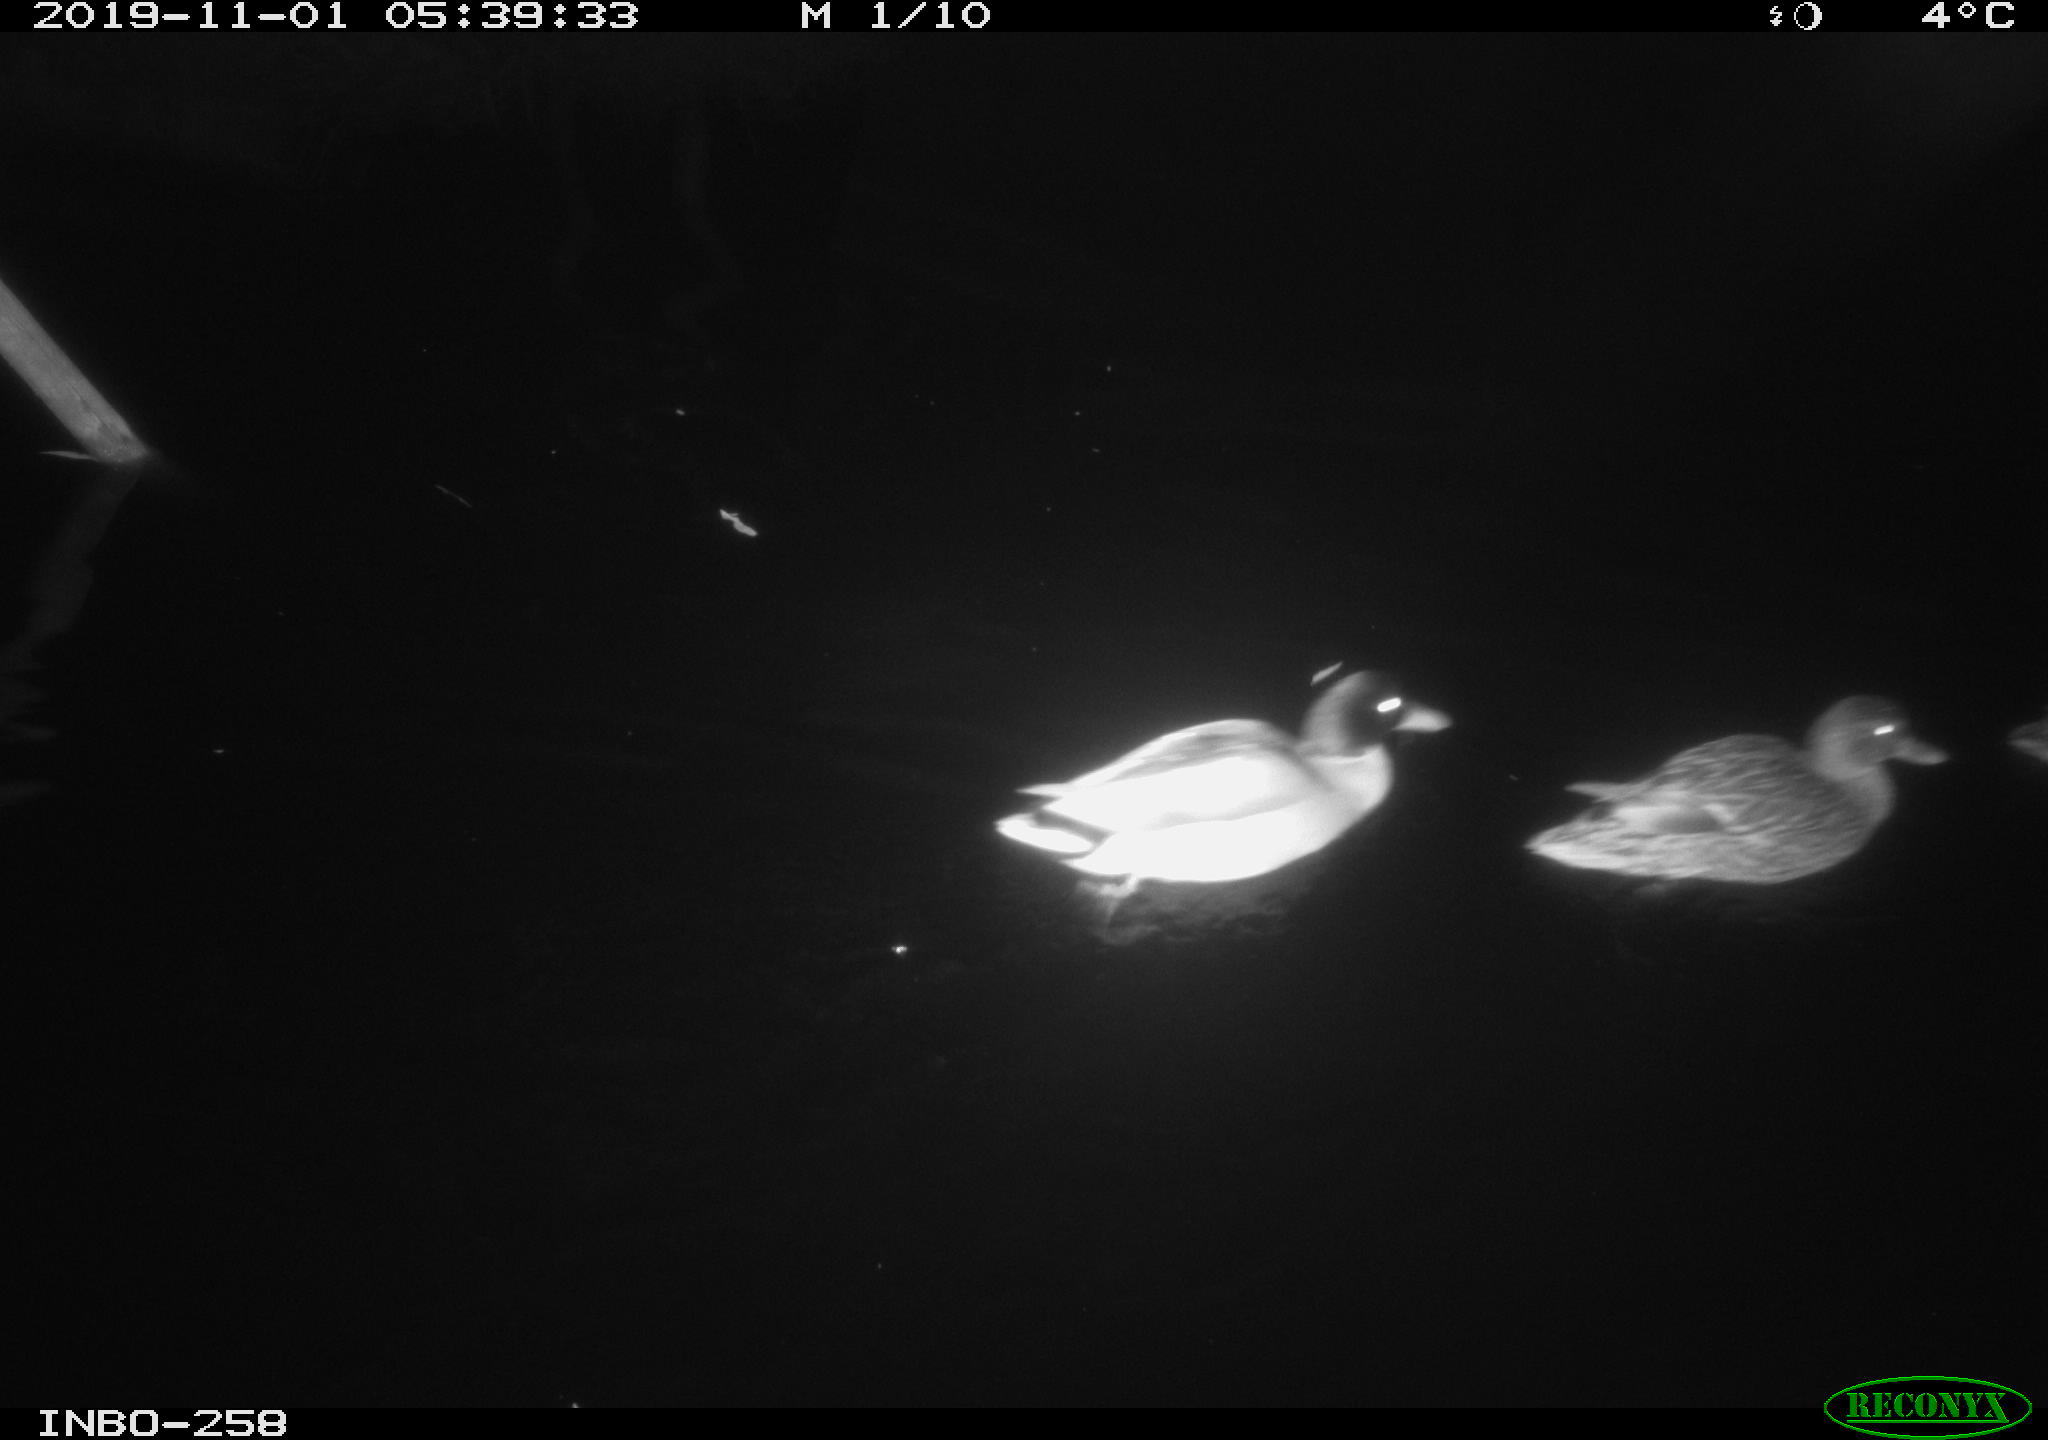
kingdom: Animalia
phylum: Chordata
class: Aves
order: Anseriformes
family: Anatidae
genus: Anas
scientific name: Anas platyrhynchos
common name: Mallard
